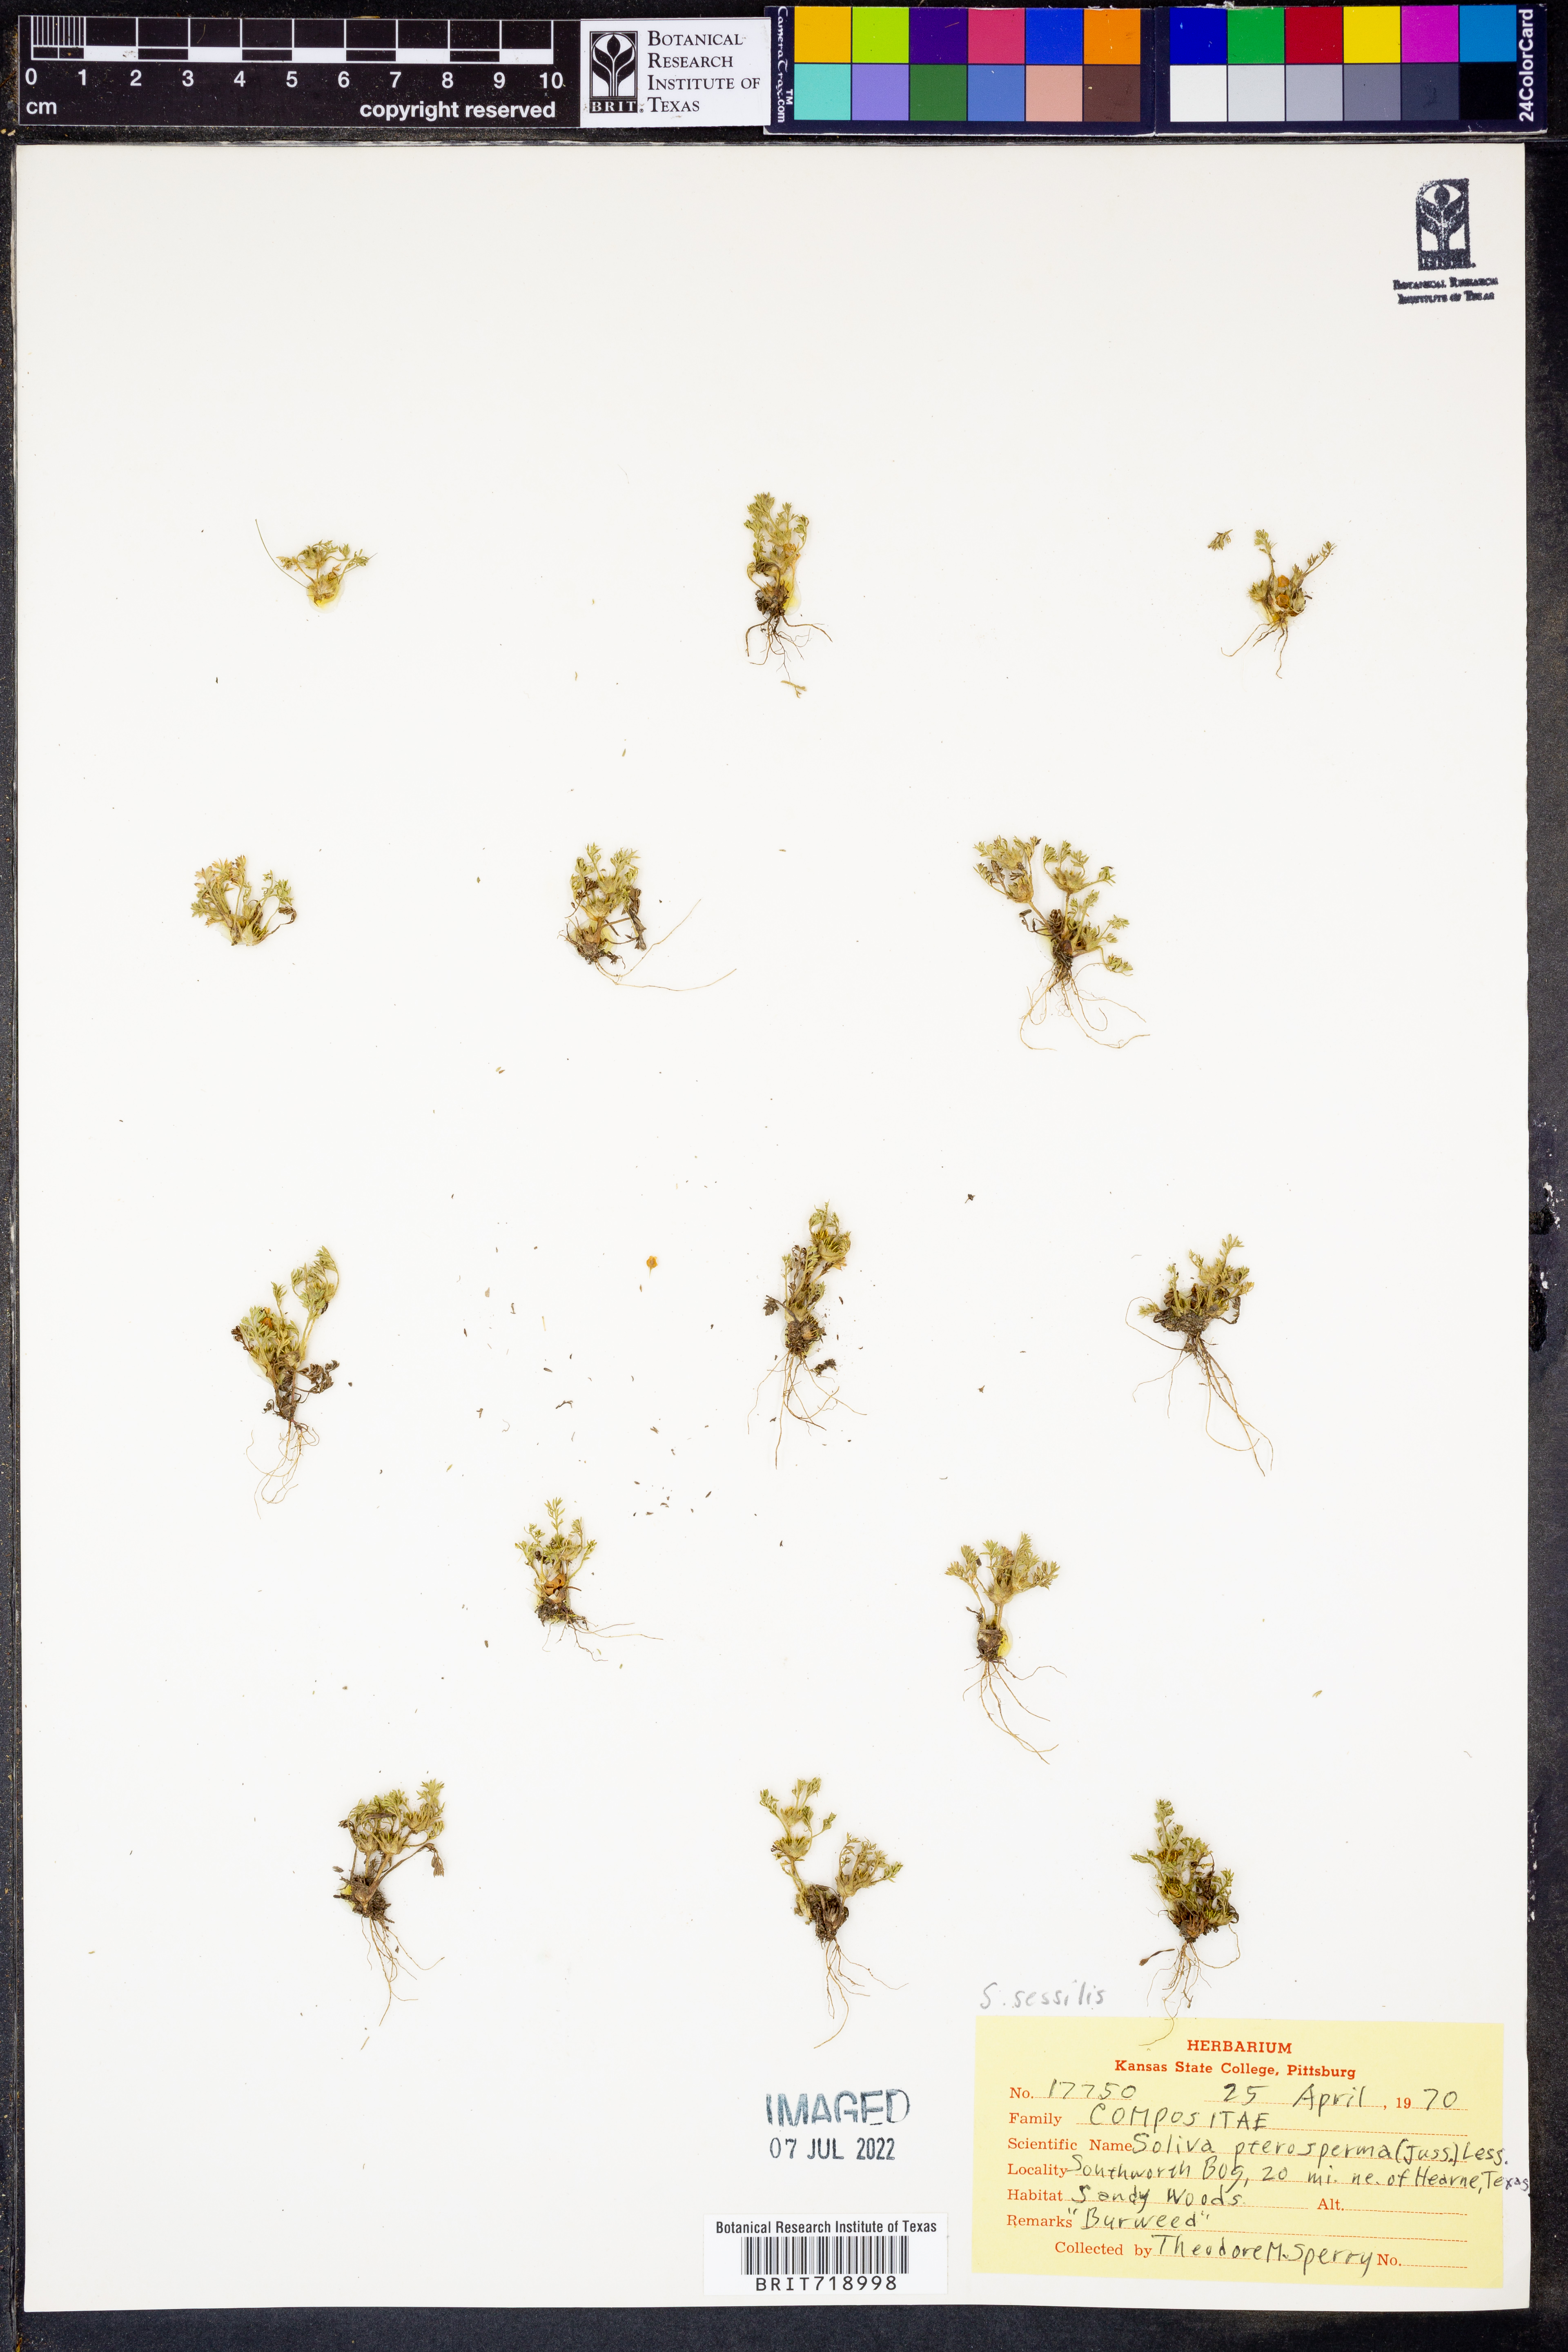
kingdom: Plantae
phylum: Tracheophyta
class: Magnoliopsida
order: Asterales
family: Asteraceae
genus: Soliva
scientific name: Soliva sessilis
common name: Field burrweed
